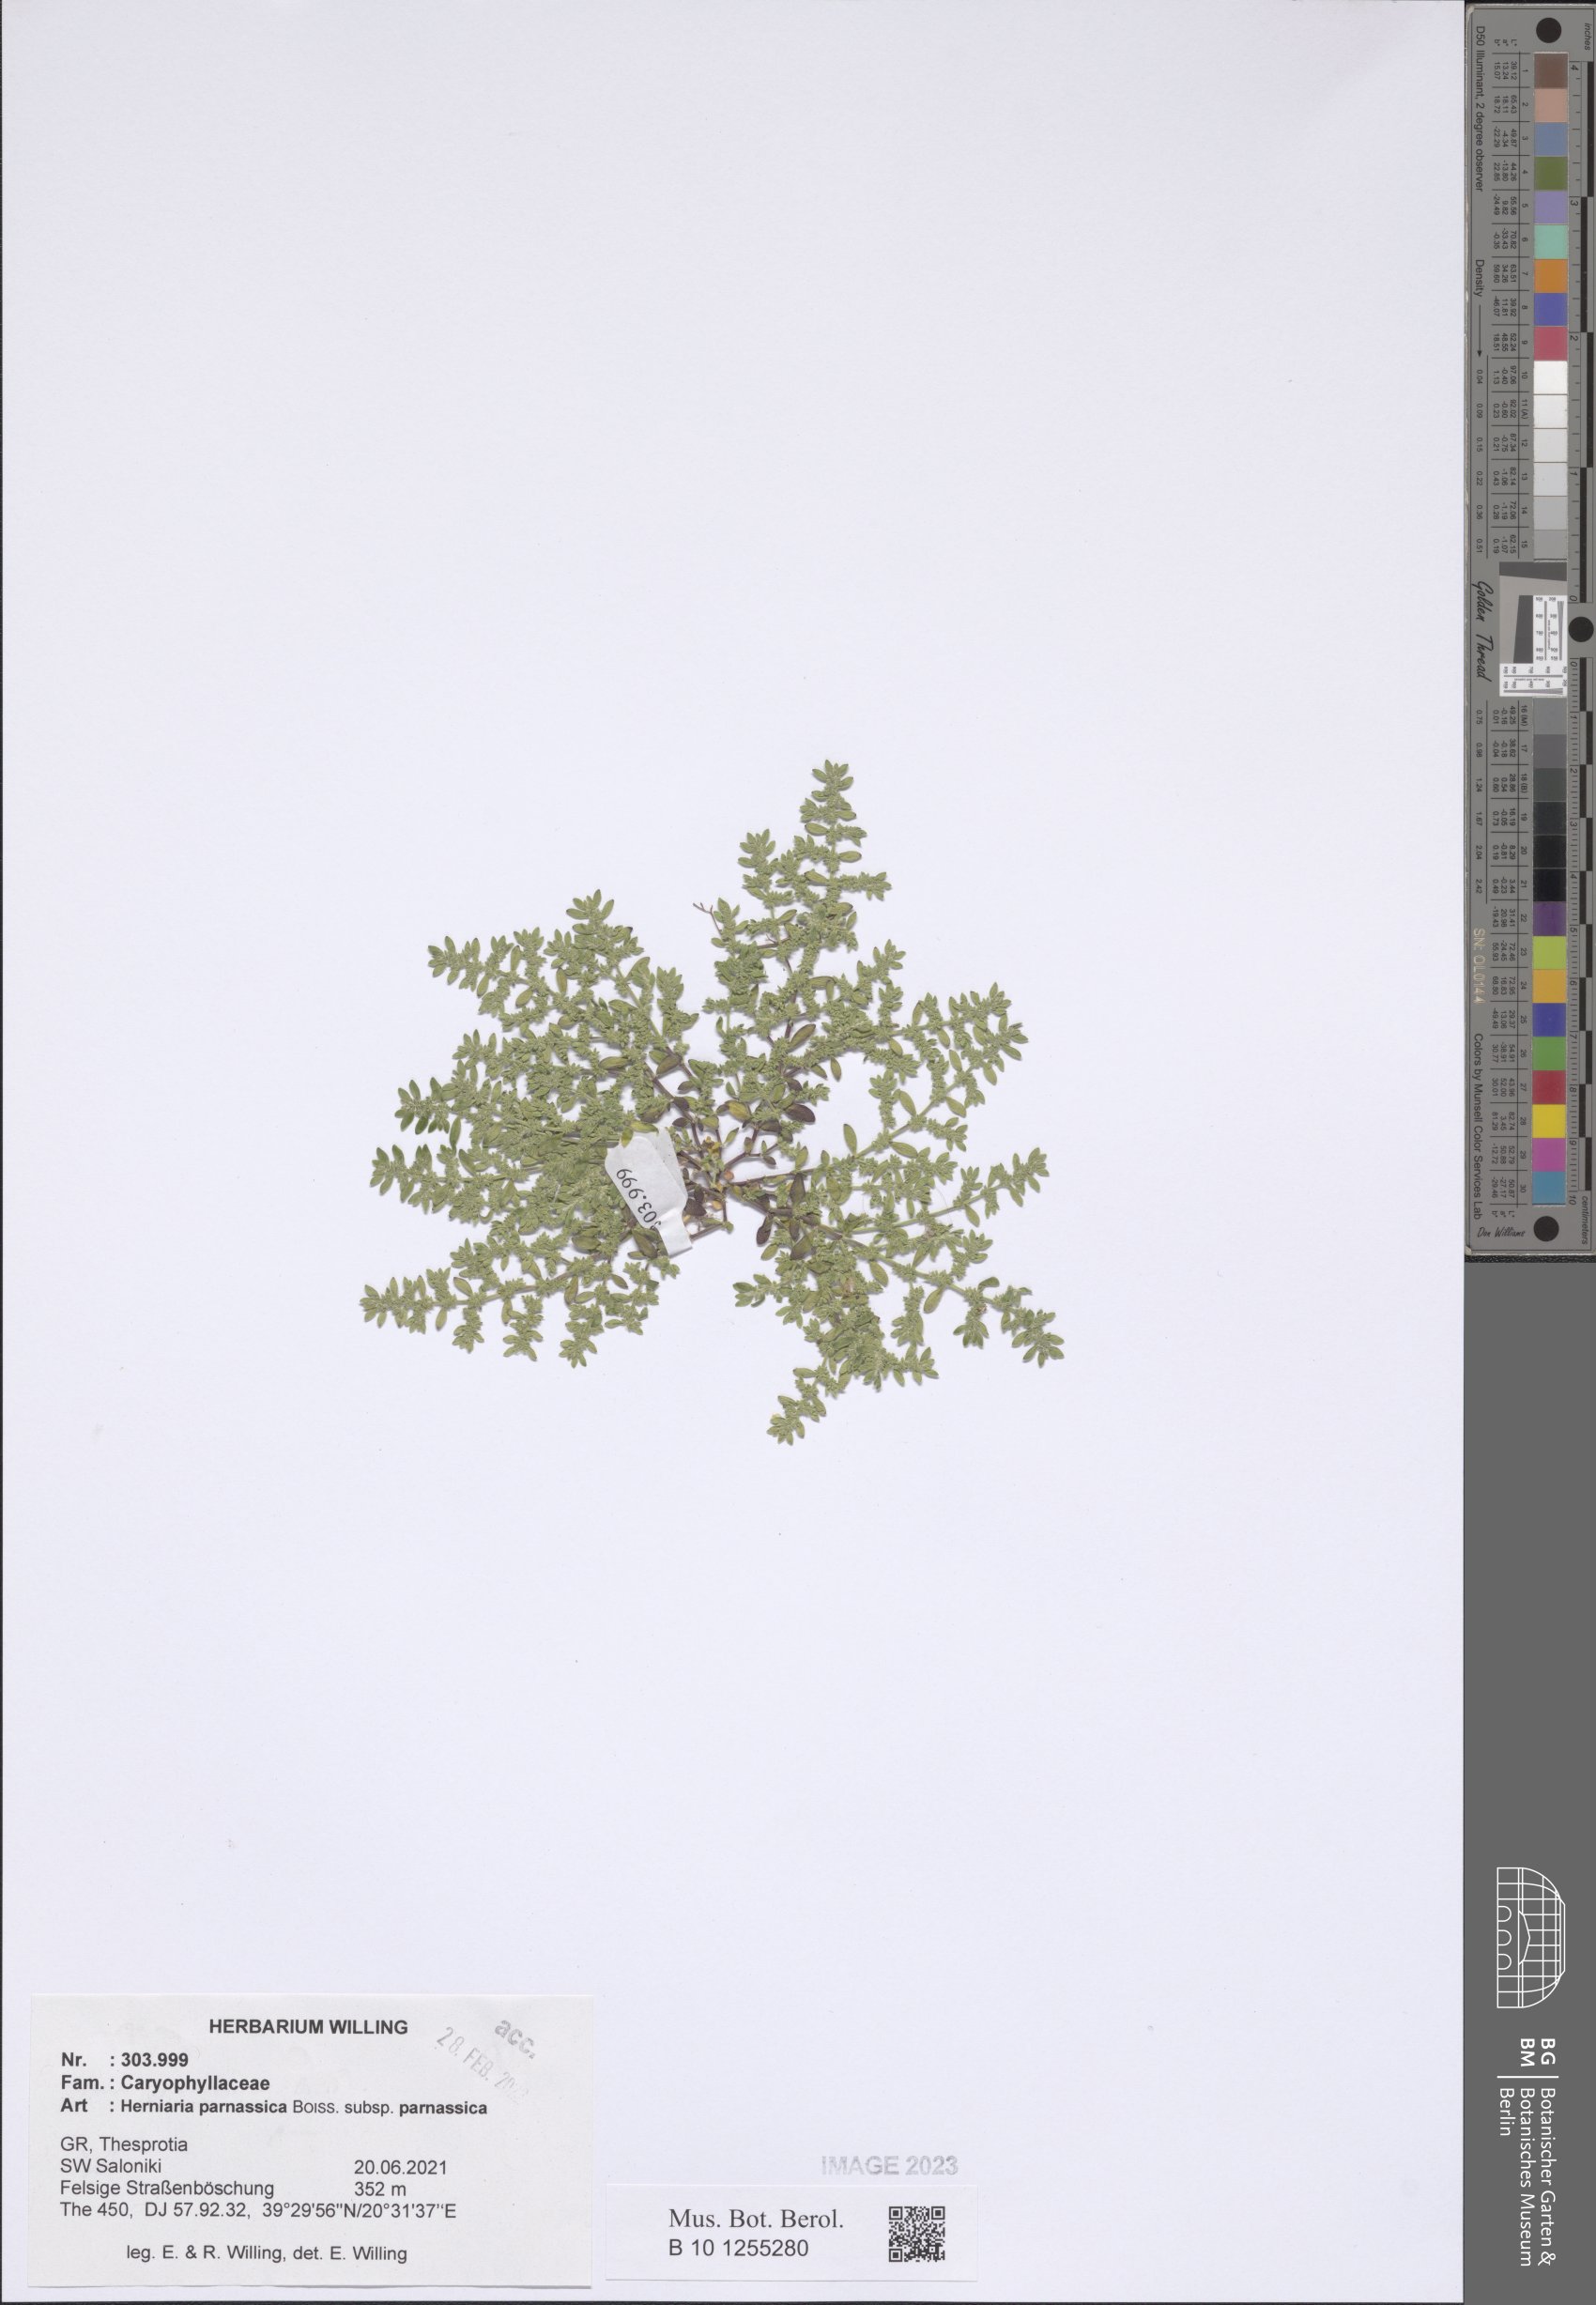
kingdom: Plantae
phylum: Tracheophyta
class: Magnoliopsida
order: Caryophyllales
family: Caryophyllaceae
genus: Herniaria
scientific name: Herniaria parnassica
